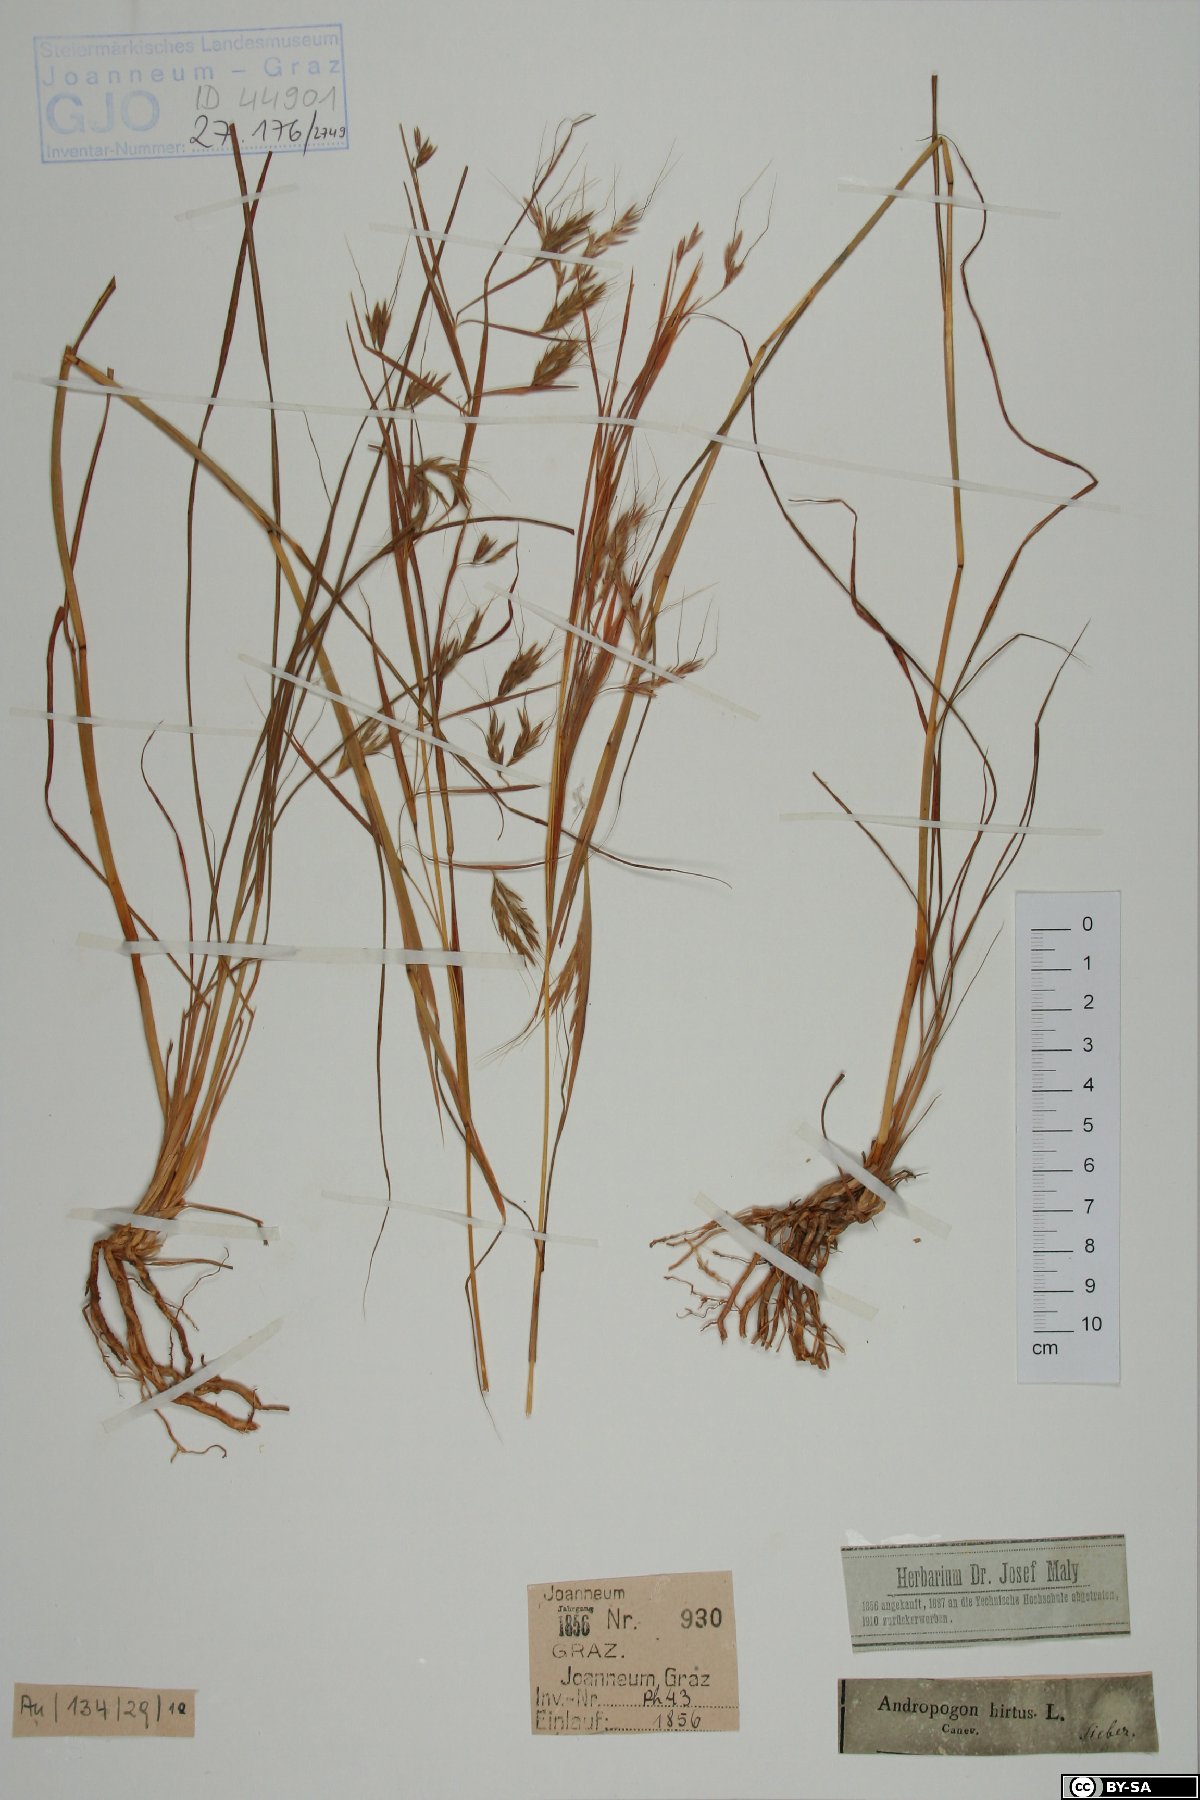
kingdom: Plantae
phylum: Tracheophyta
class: Liliopsida
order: Poales
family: Poaceae
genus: Hyparrhenia
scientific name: Hyparrhenia hirta
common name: Thatching grass
